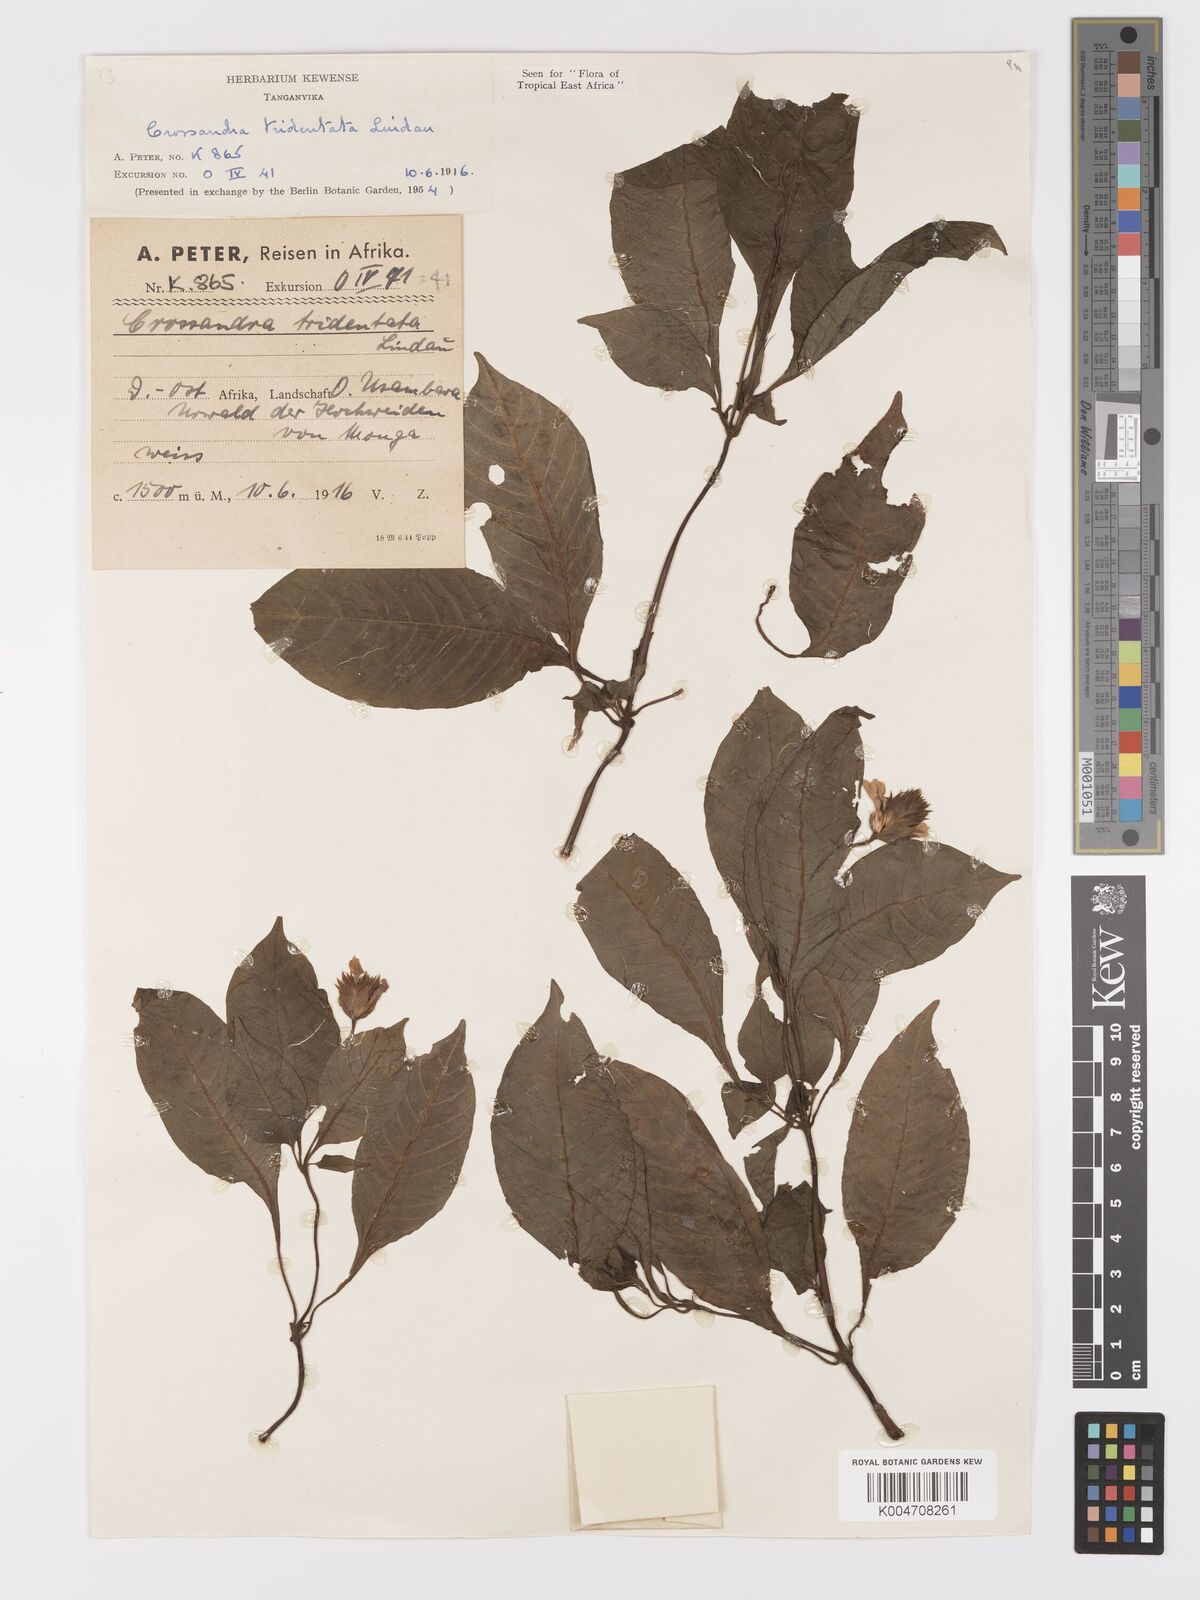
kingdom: Plantae
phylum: Tracheophyta
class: Magnoliopsida
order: Lamiales
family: Acanthaceae
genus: Crossandra
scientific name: Crossandra tridentata
